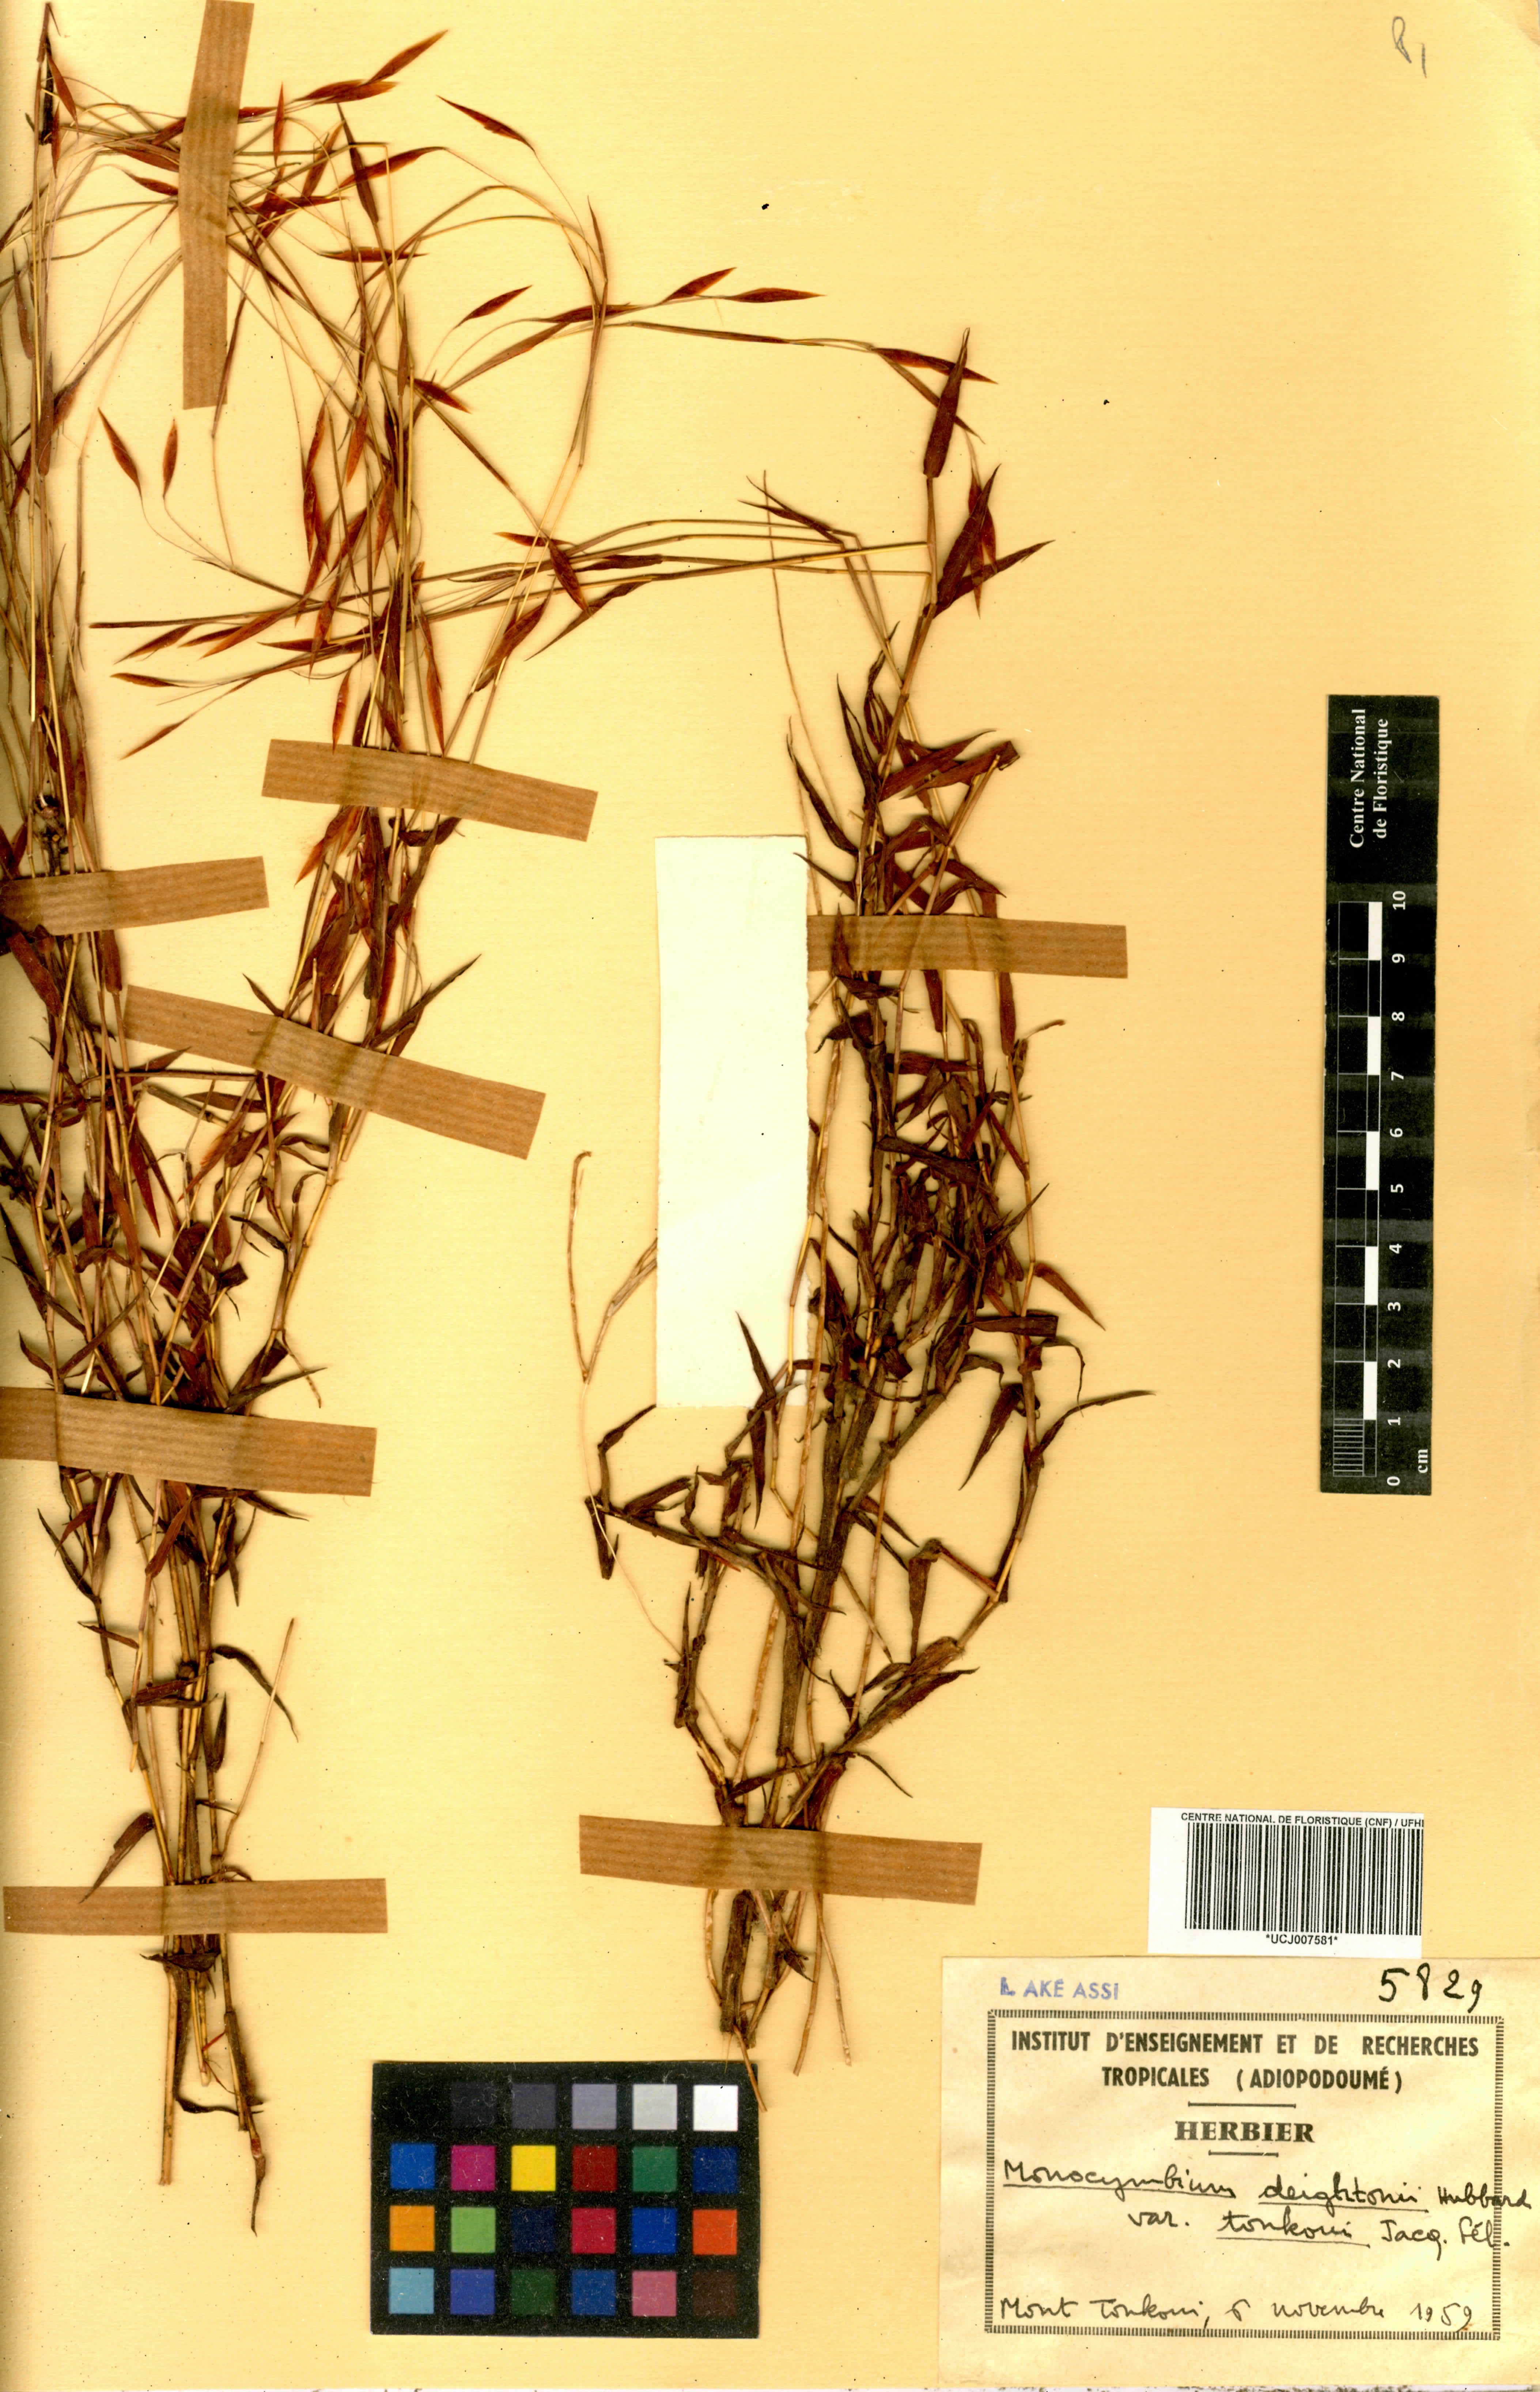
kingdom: Plantae
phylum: Tracheophyta
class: Liliopsida
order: Poales
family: Poaceae
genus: Monocymbium
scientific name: Monocymbium deightonii
